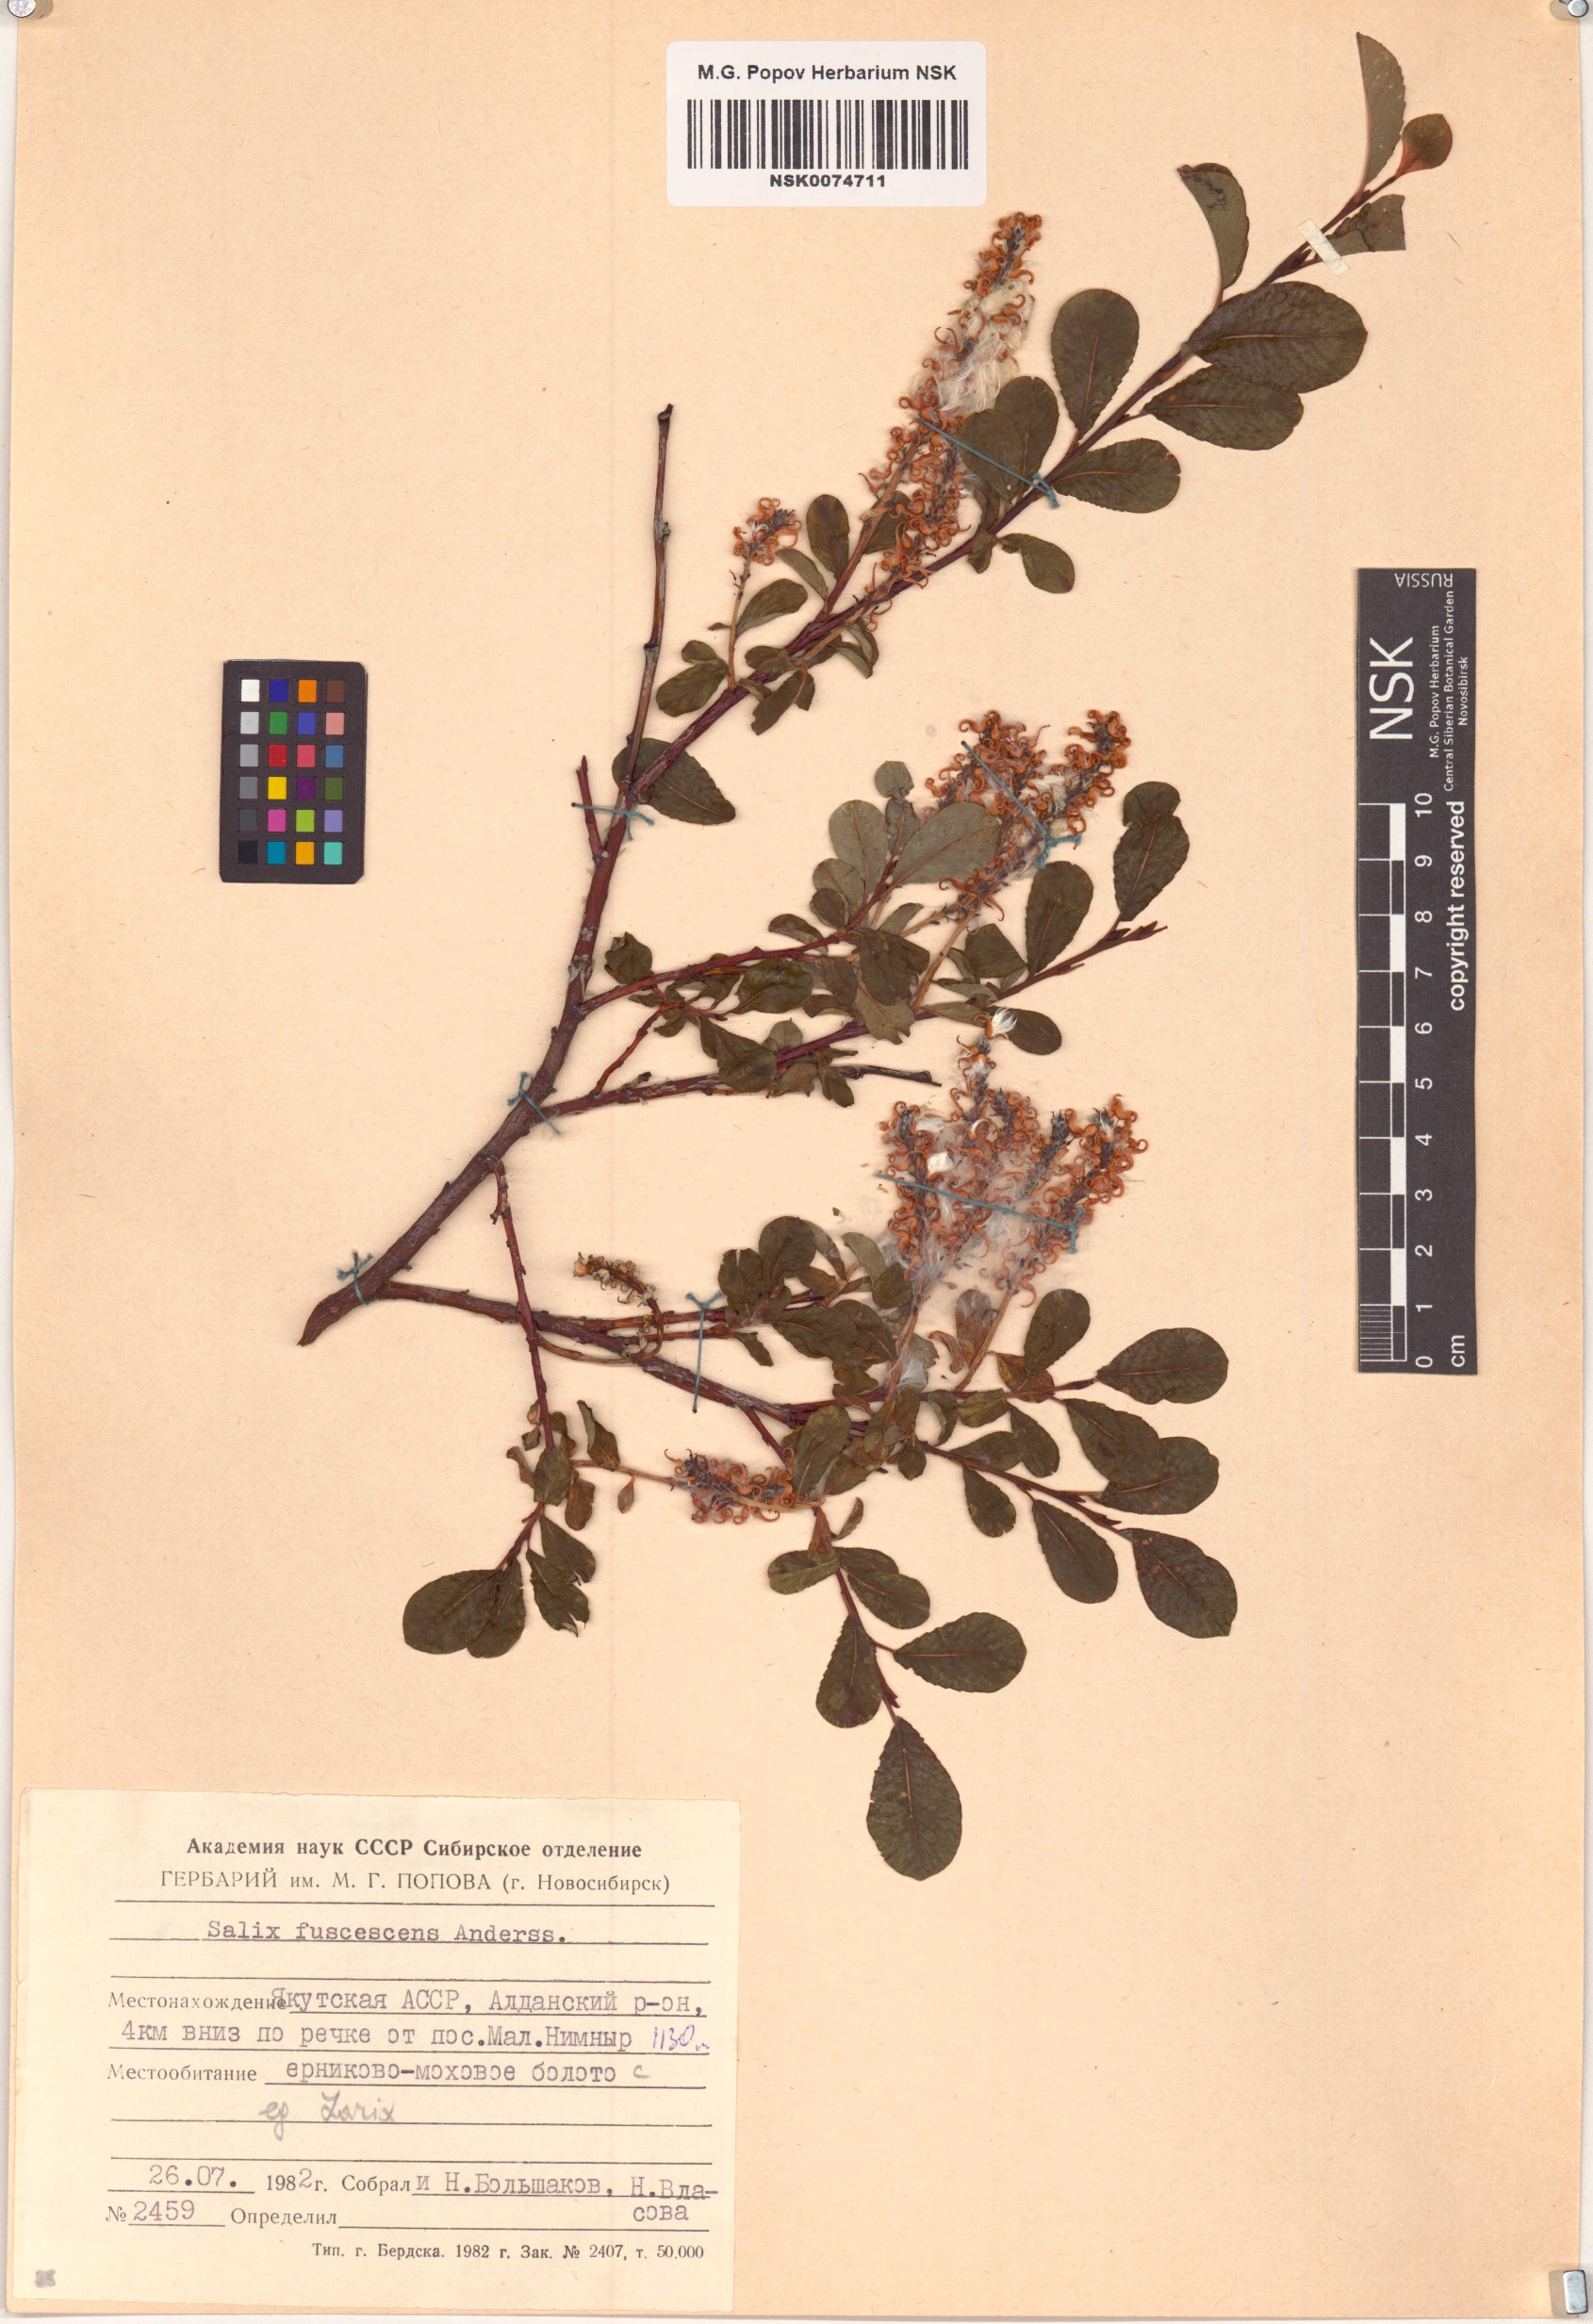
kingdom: Plantae
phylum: Tracheophyta
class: Magnoliopsida
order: Malpighiales
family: Salicaceae
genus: Salix
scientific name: Salix fuscescens
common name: Brownish willow
